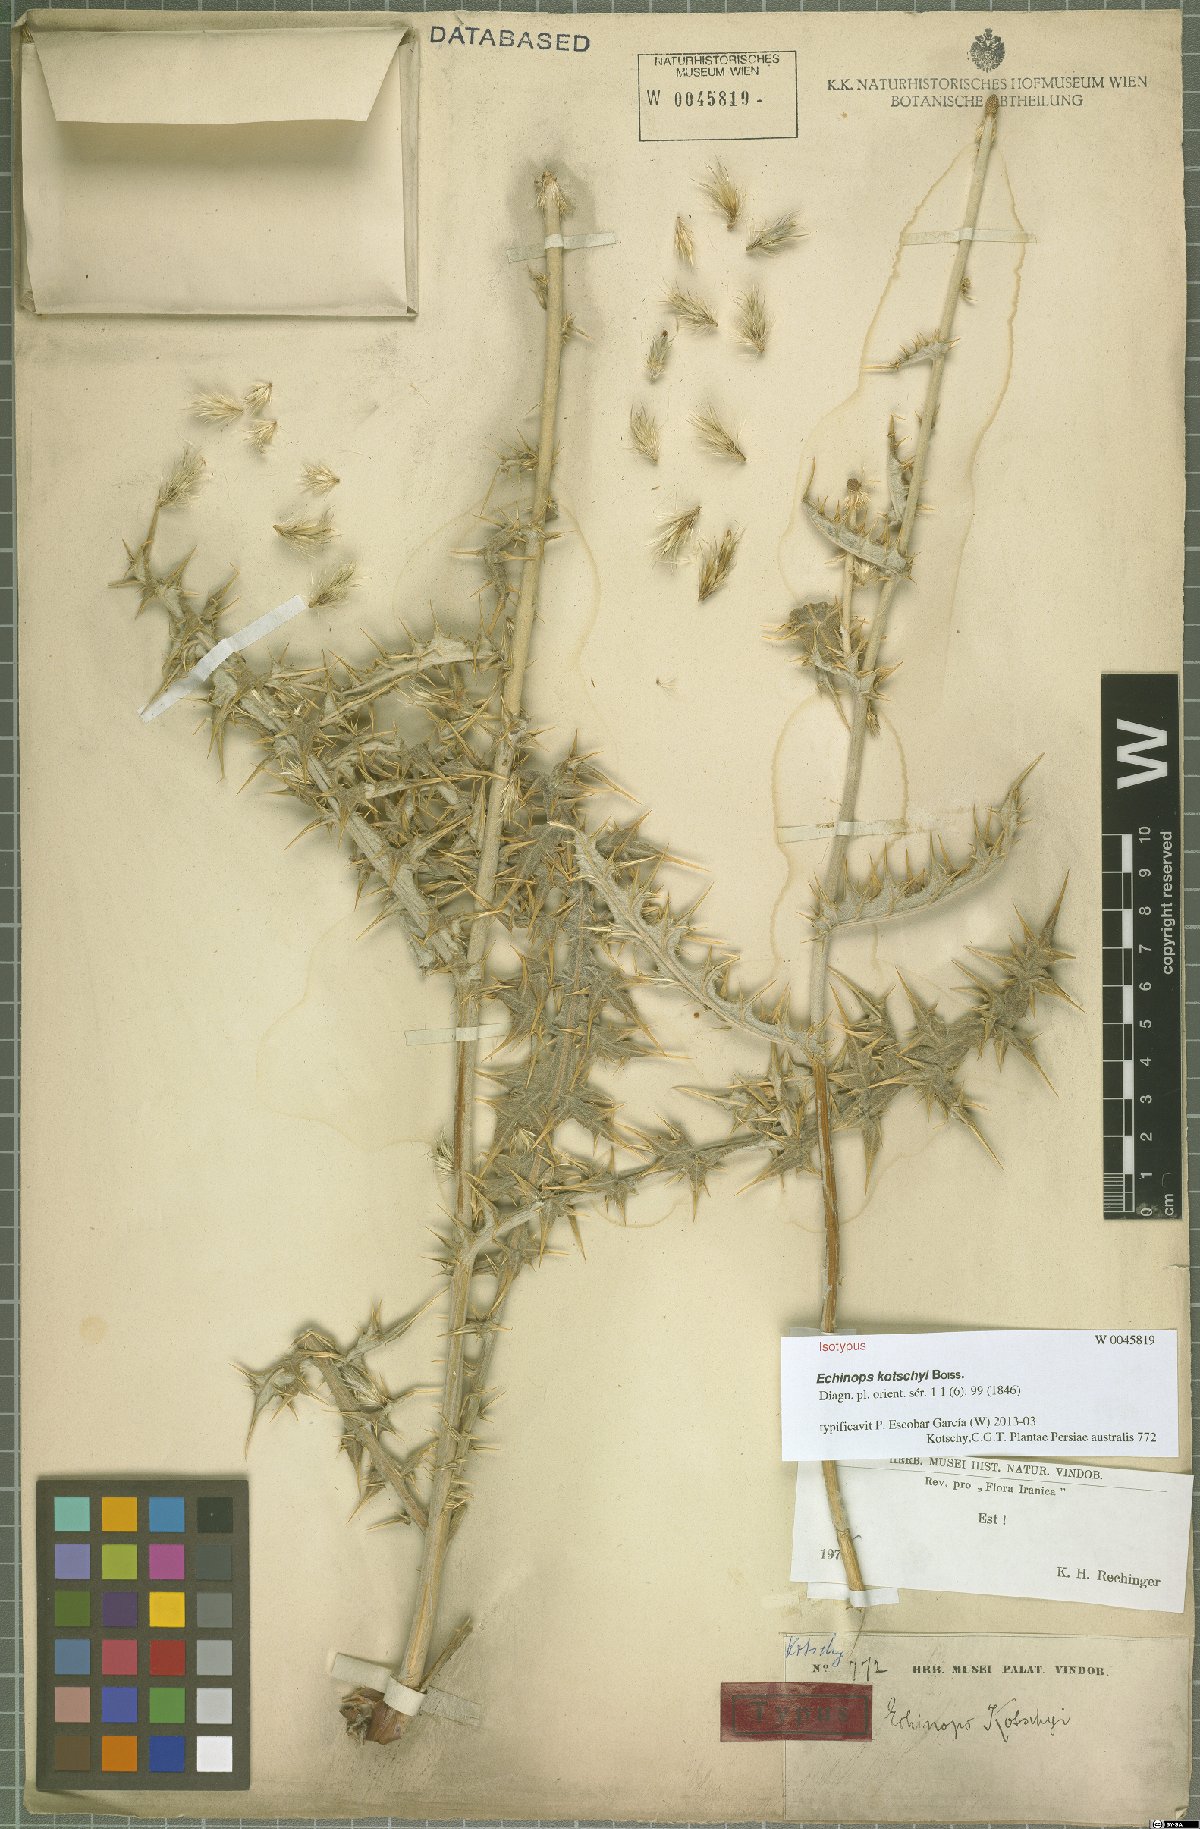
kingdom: Plantae
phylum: Tracheophyta
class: Magnoliopsida
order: Asterales
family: Asteraceae
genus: Echinops
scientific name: Echinops kotschyi
